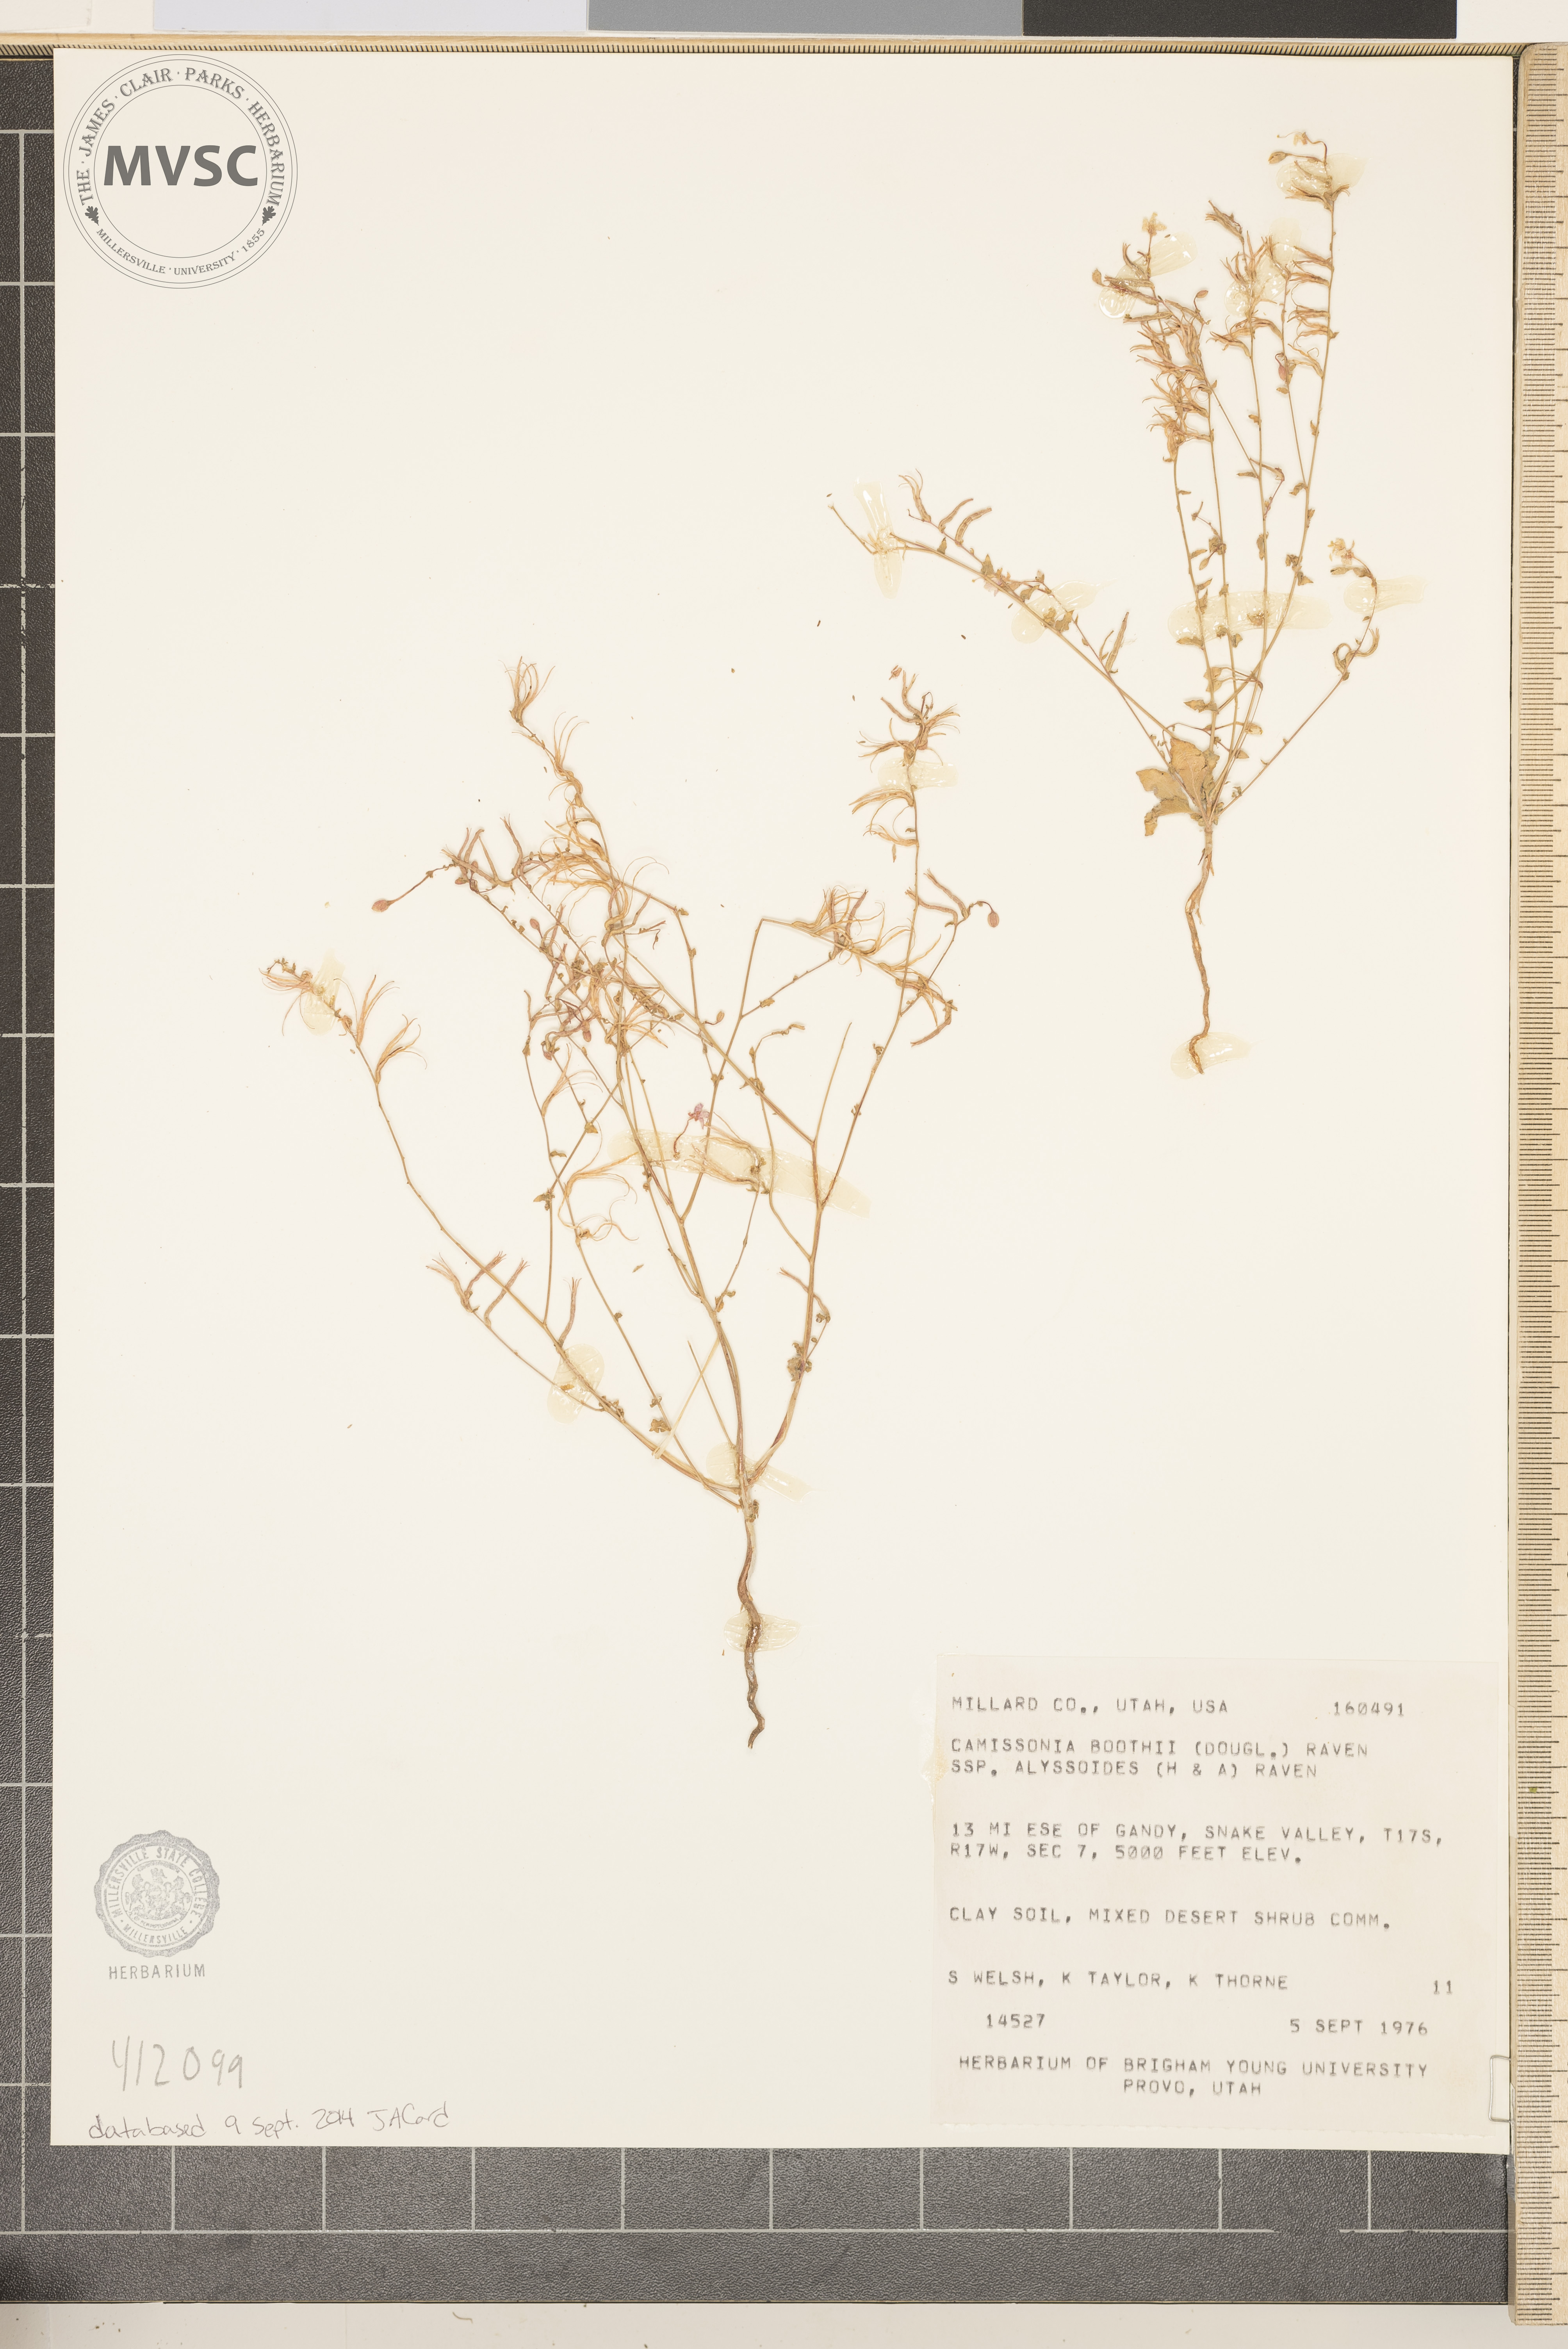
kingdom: Plantae
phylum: Tracheophyta
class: Magnoliopsida
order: Myrtales
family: Onagraceae
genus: Eremothera
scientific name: Eremothera boothii
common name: Booth's evening primrose
